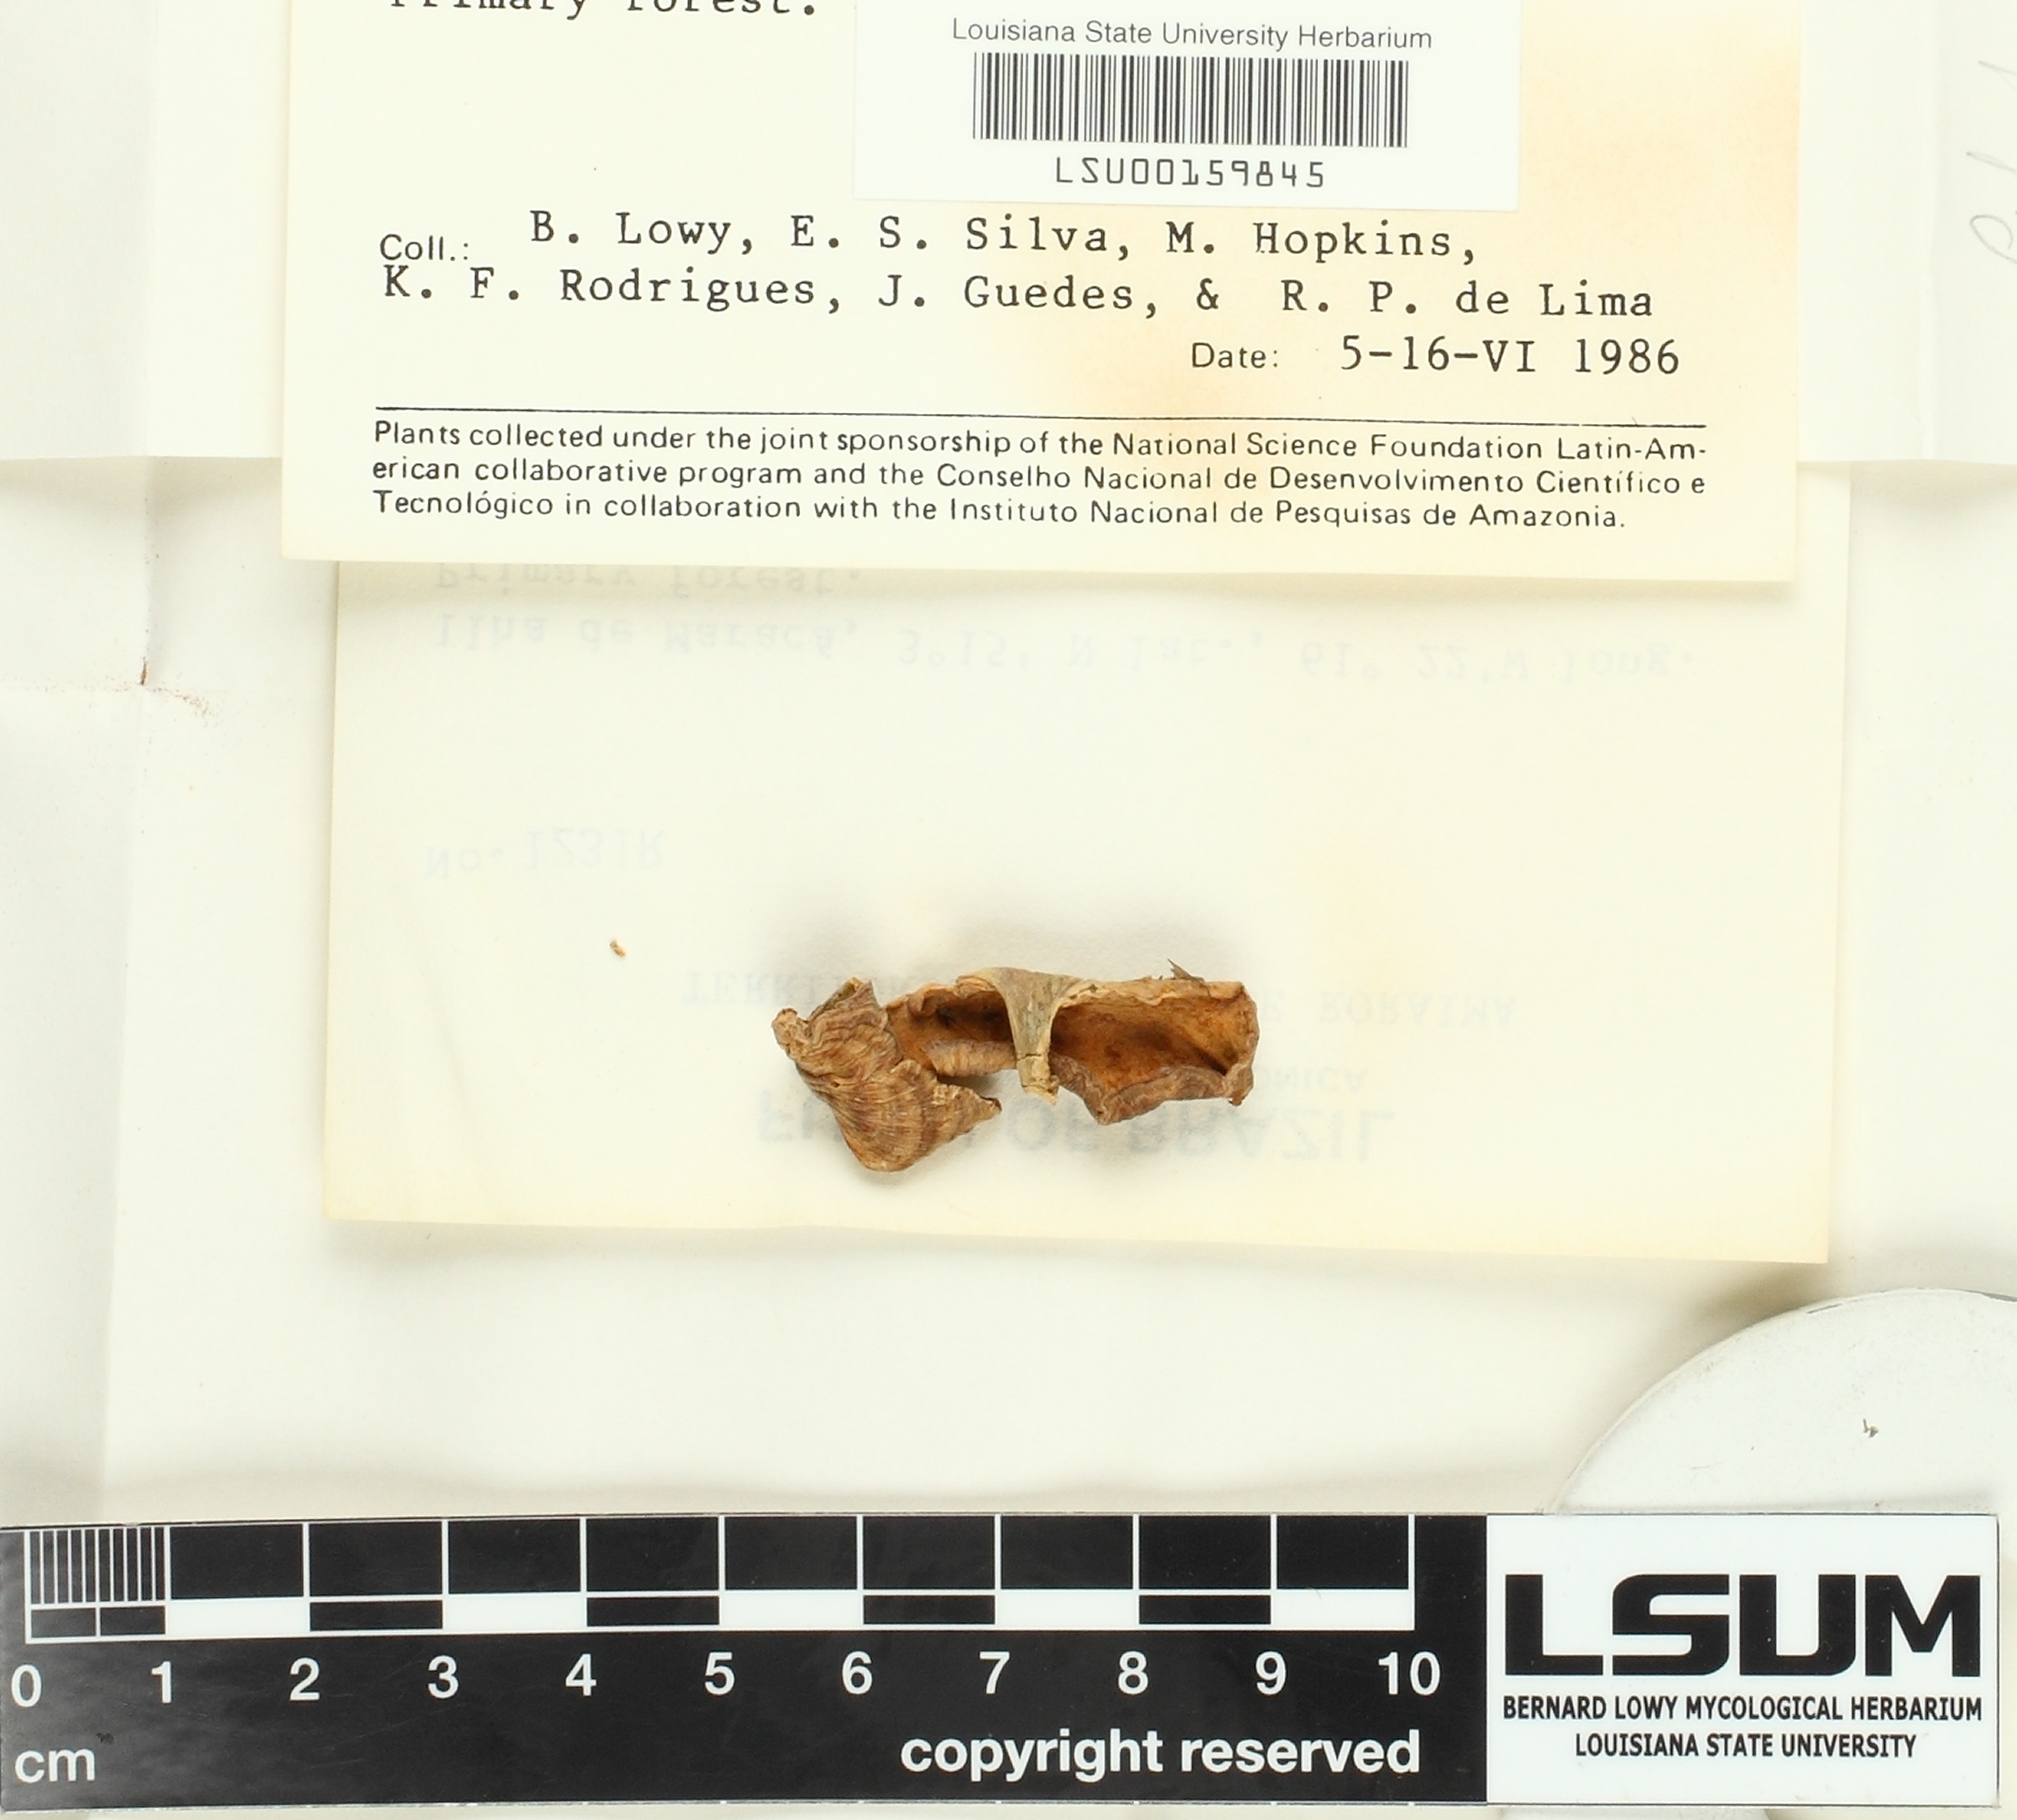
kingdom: Fungi
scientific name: Fungi
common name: Fungi
